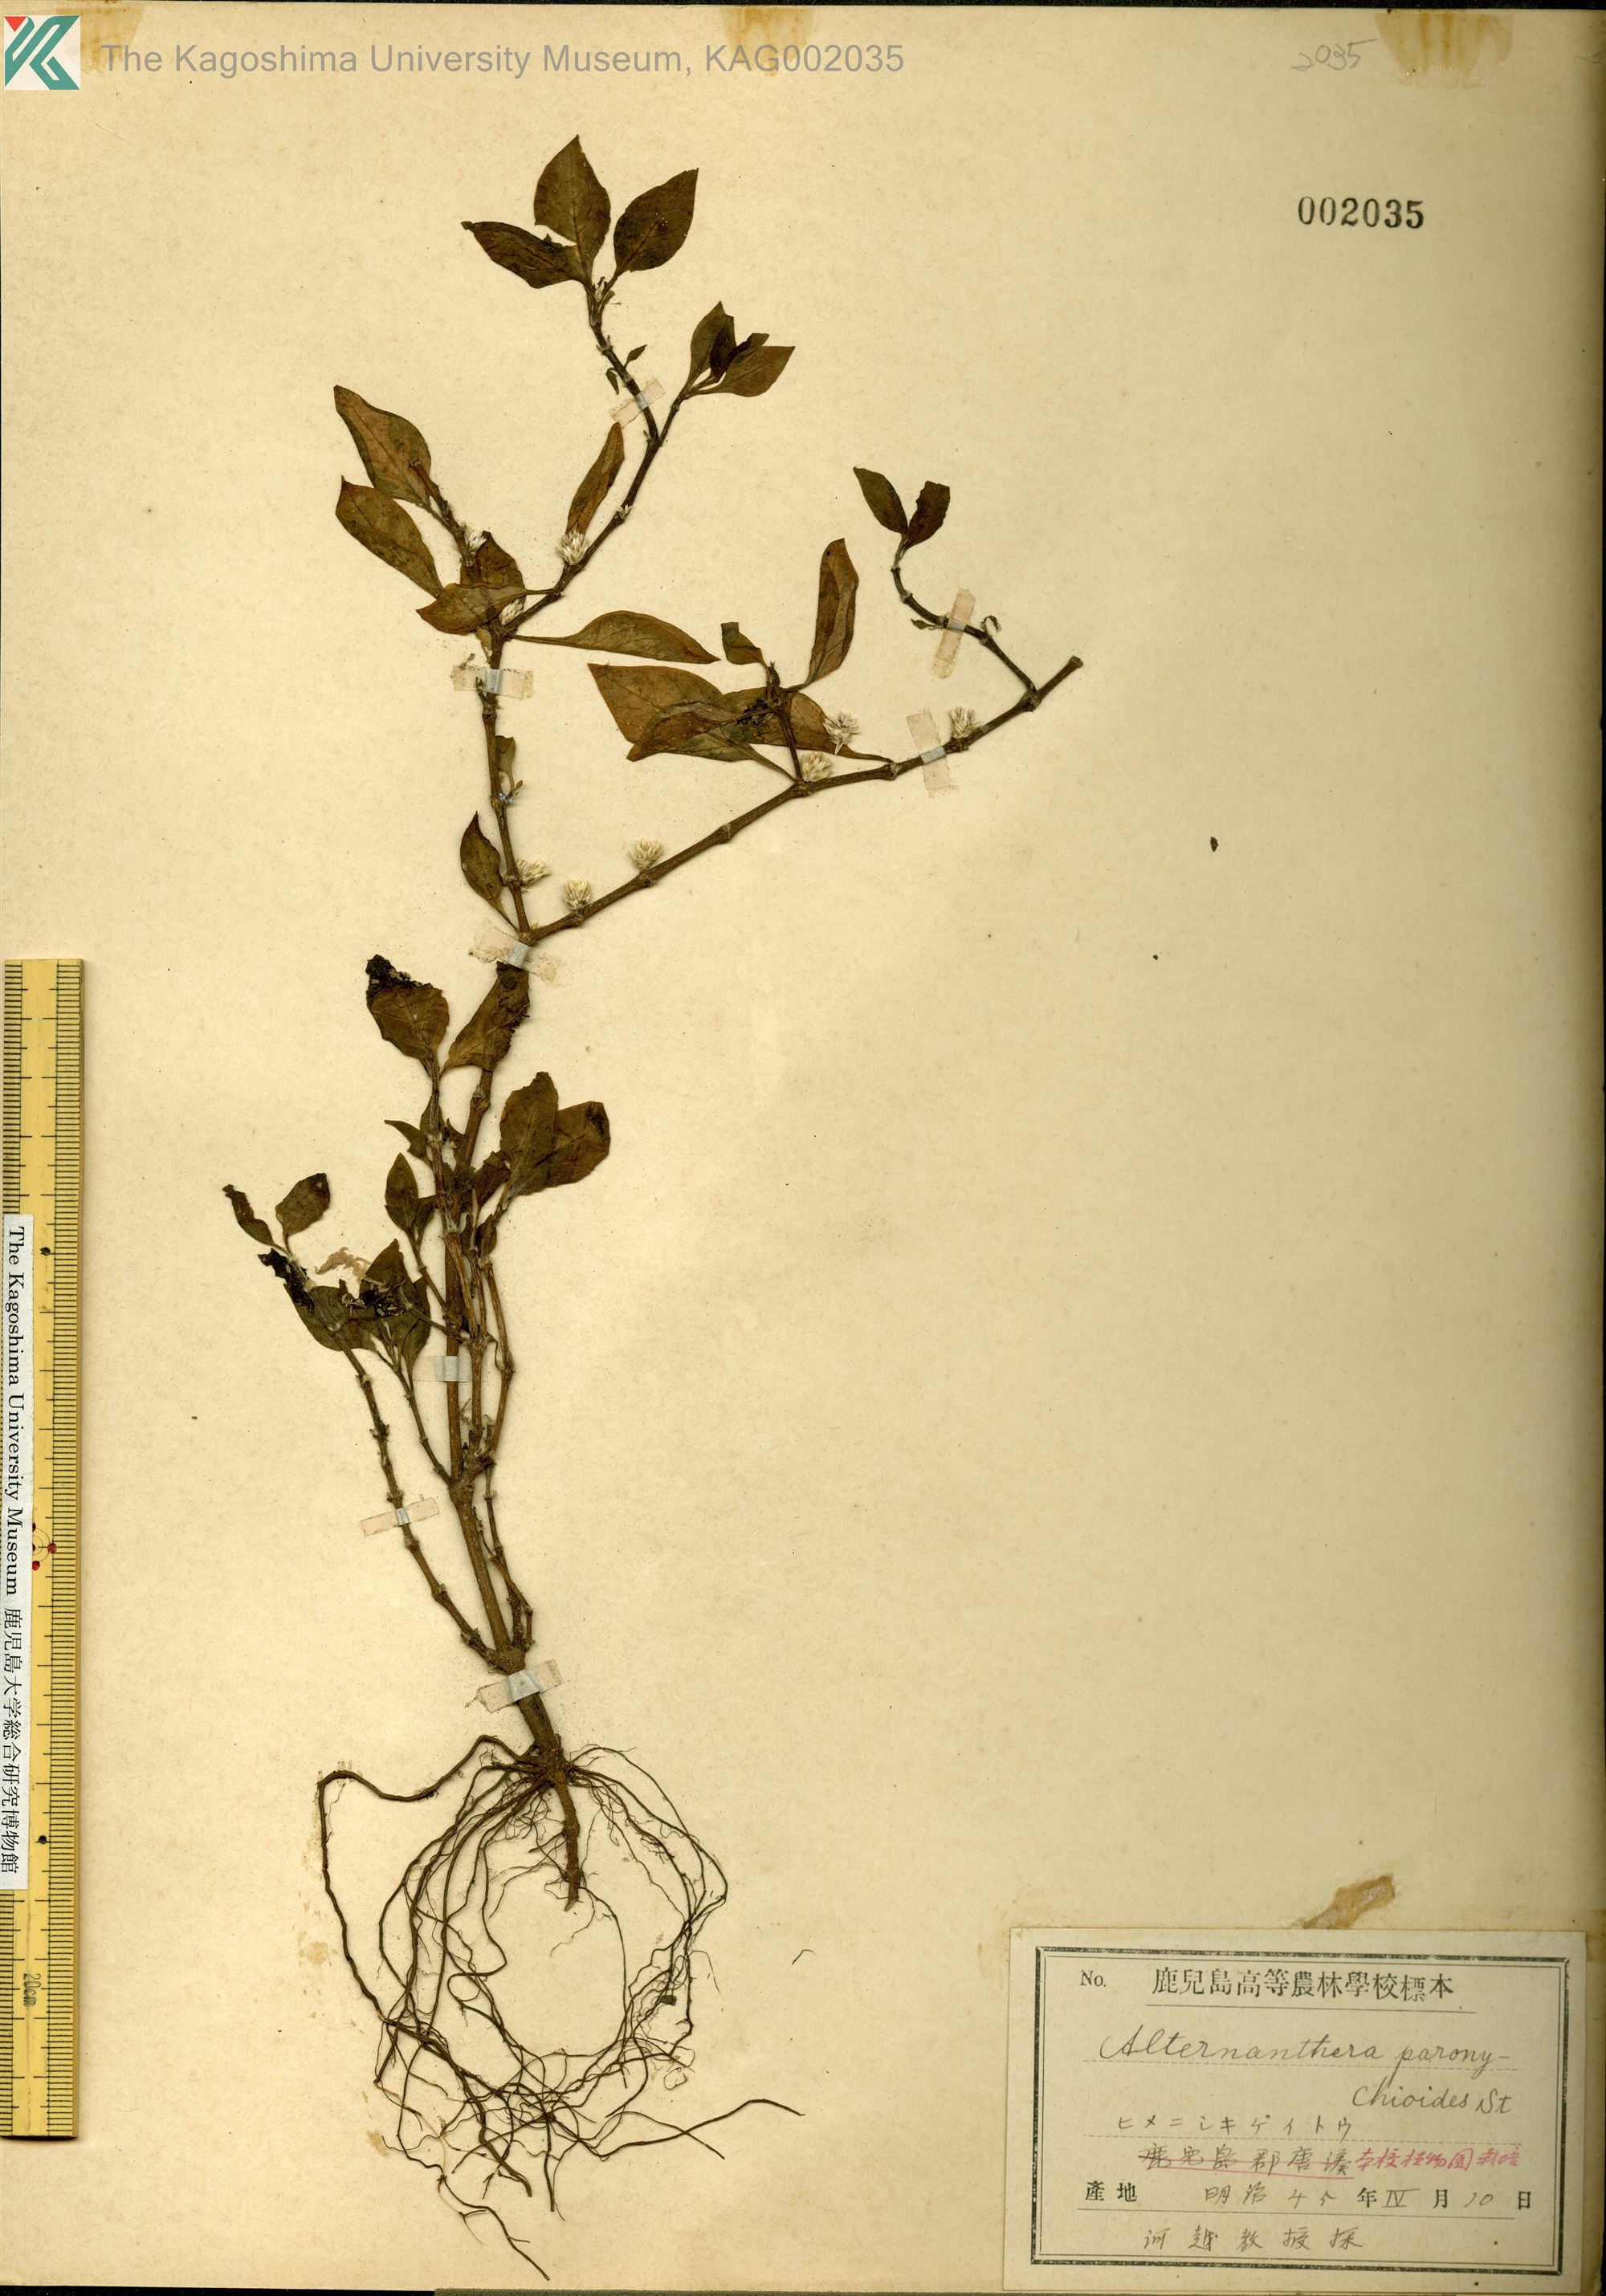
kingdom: Plantae
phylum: Tracheophyta
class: Magnoliopsida
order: Caryophyllales
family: Amaranthaceae
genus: Alternanthera
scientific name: Alternanthera paronychioides
